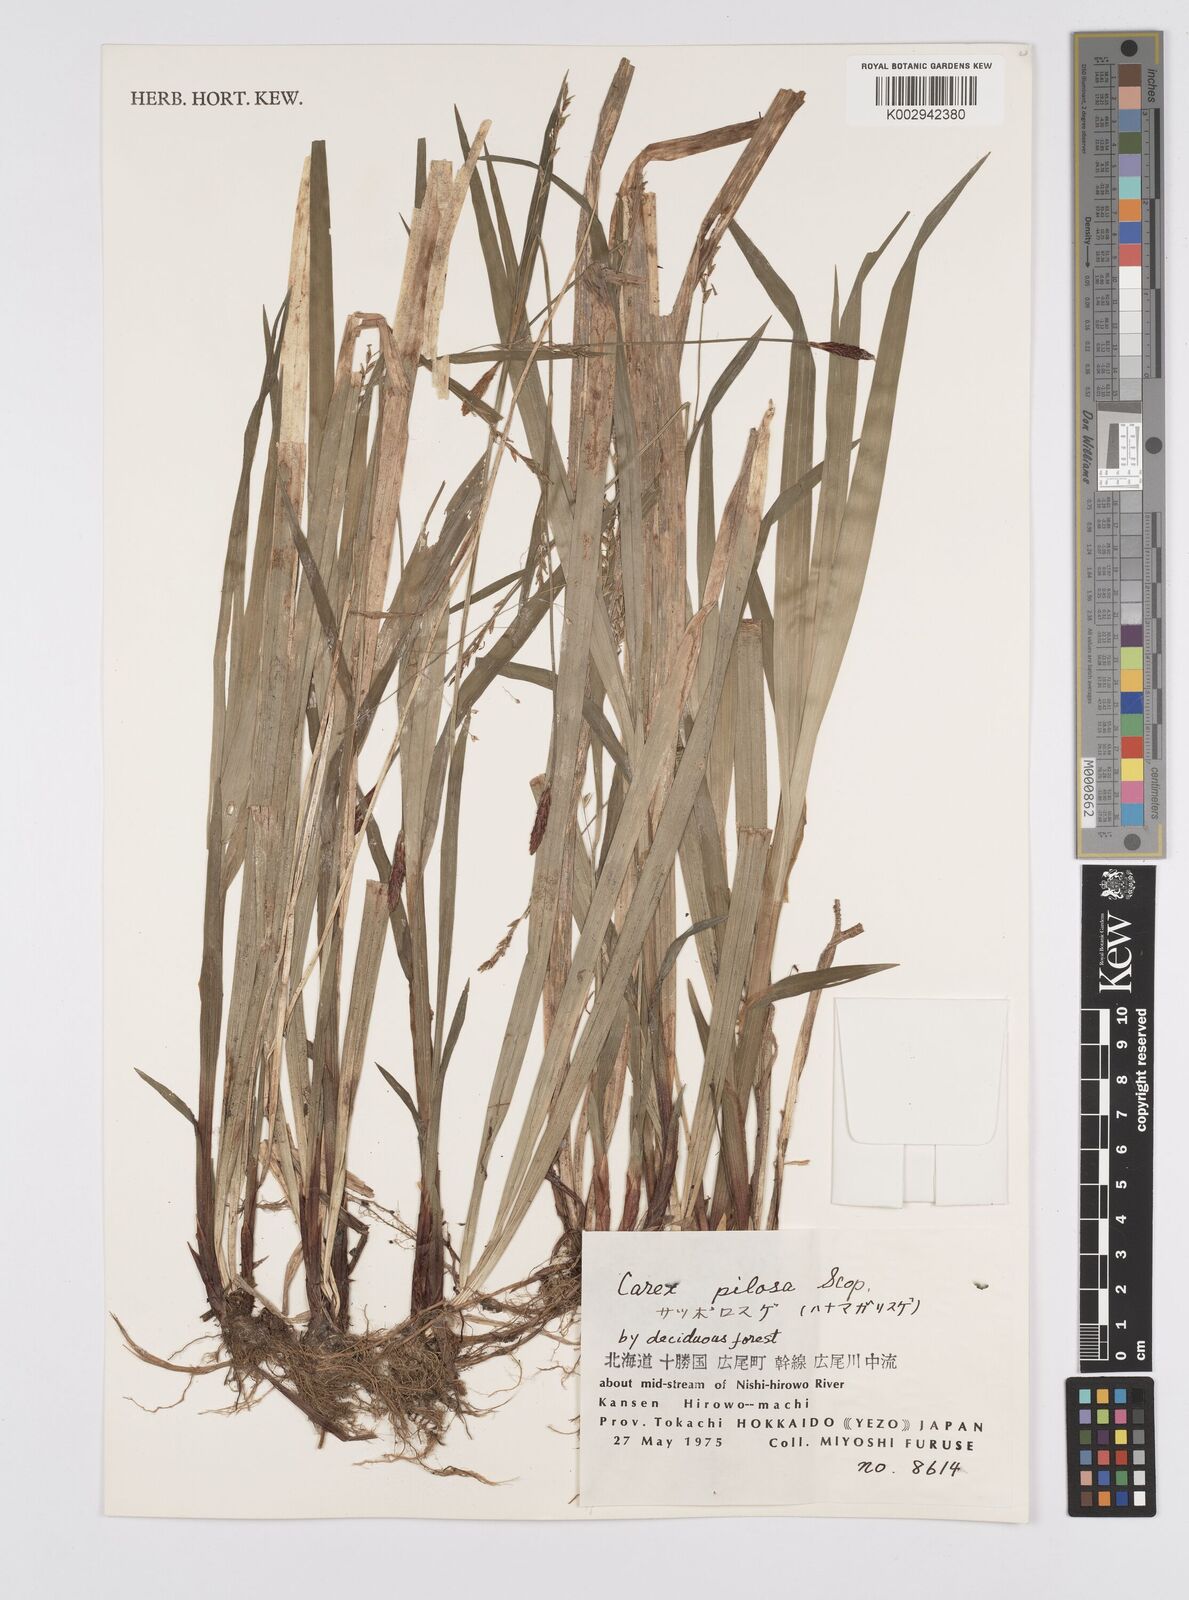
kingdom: Plantae
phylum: Tracheophyta
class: Liliopsida
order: Poales
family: Cyperaceae
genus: Carex
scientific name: Carex pilosa
